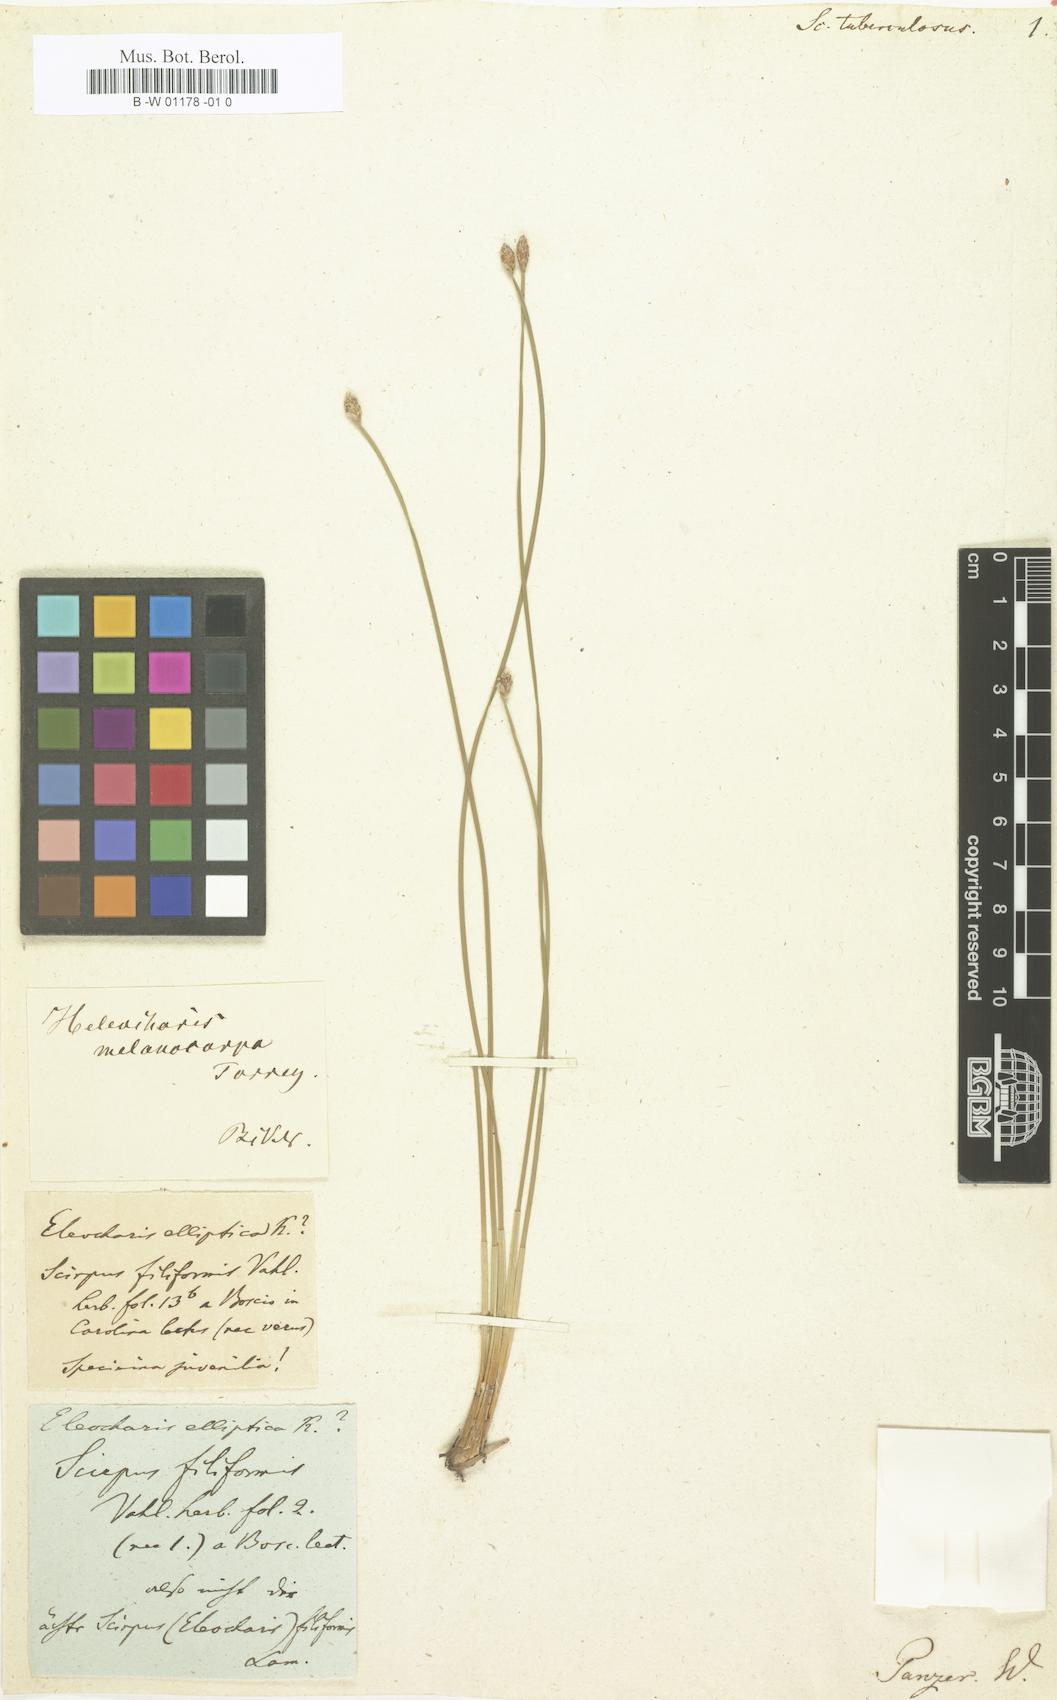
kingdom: Plantae
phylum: Tracheophyta
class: Liliopsida
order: Poales
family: Cyperaceae
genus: Eleocharis
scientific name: Eleocharis tuberculosa
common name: Cone-cup spikerush
